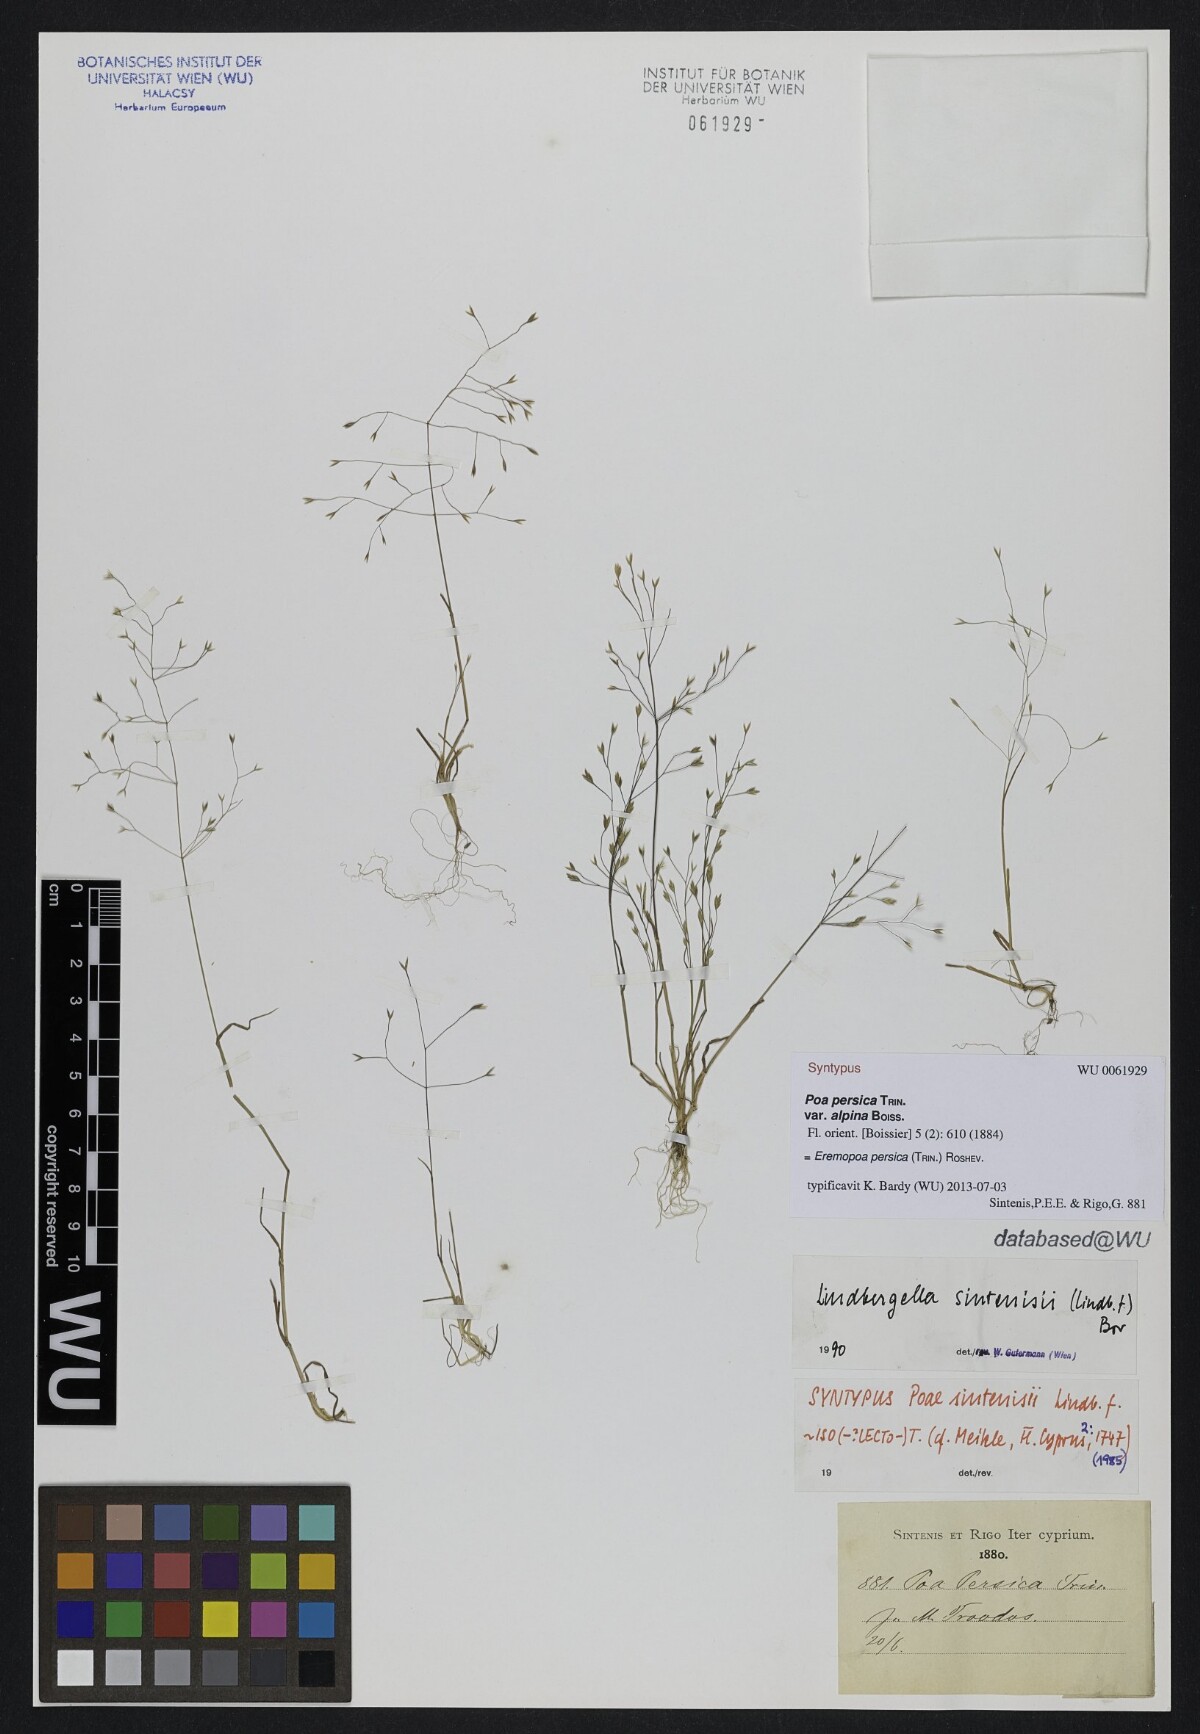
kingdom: Plantae
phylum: Tracheophyta
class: Liliopsida
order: Poales
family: Poaceae
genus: Poa
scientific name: Poa diaphora
